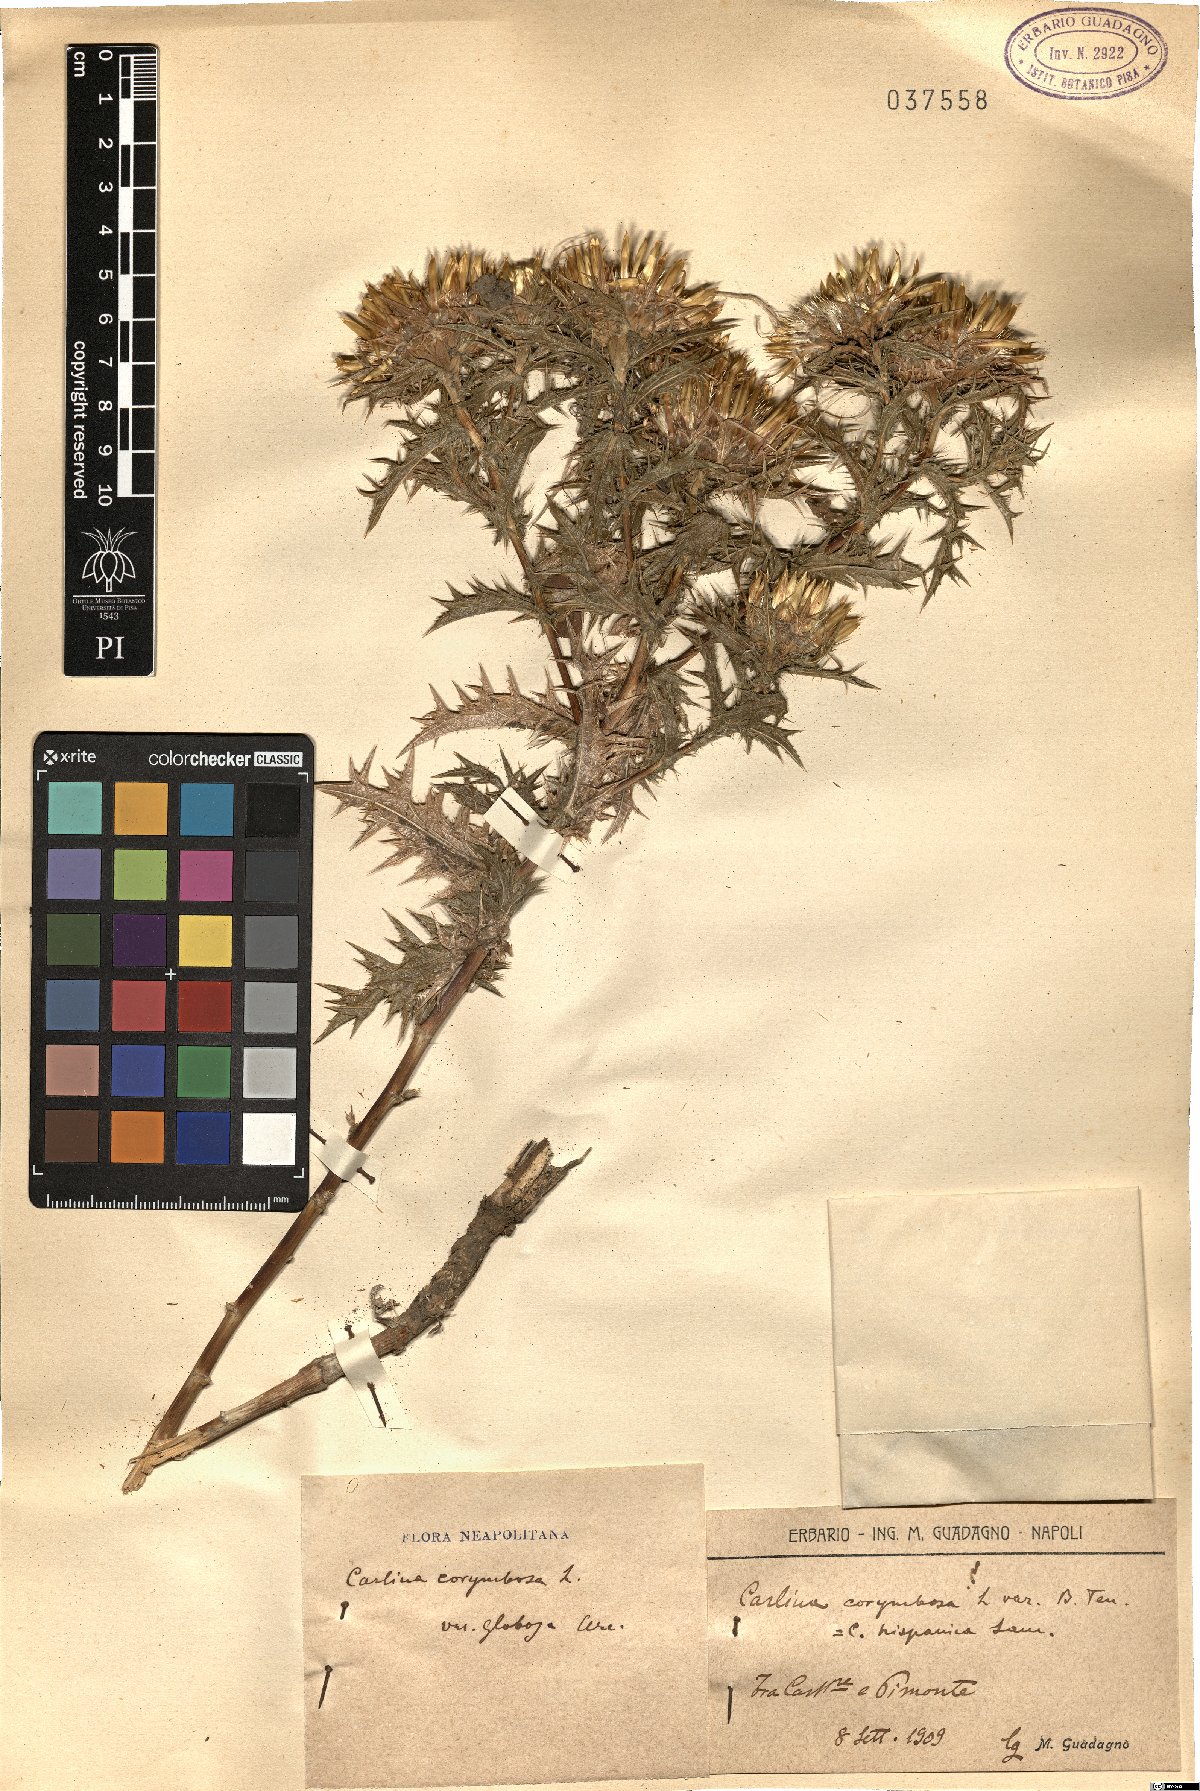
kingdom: Plantae
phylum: Tracheophyta
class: Magnoliopsida
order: Asterales
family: Asteraceae
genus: Carlina
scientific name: Carlina corymbosa
